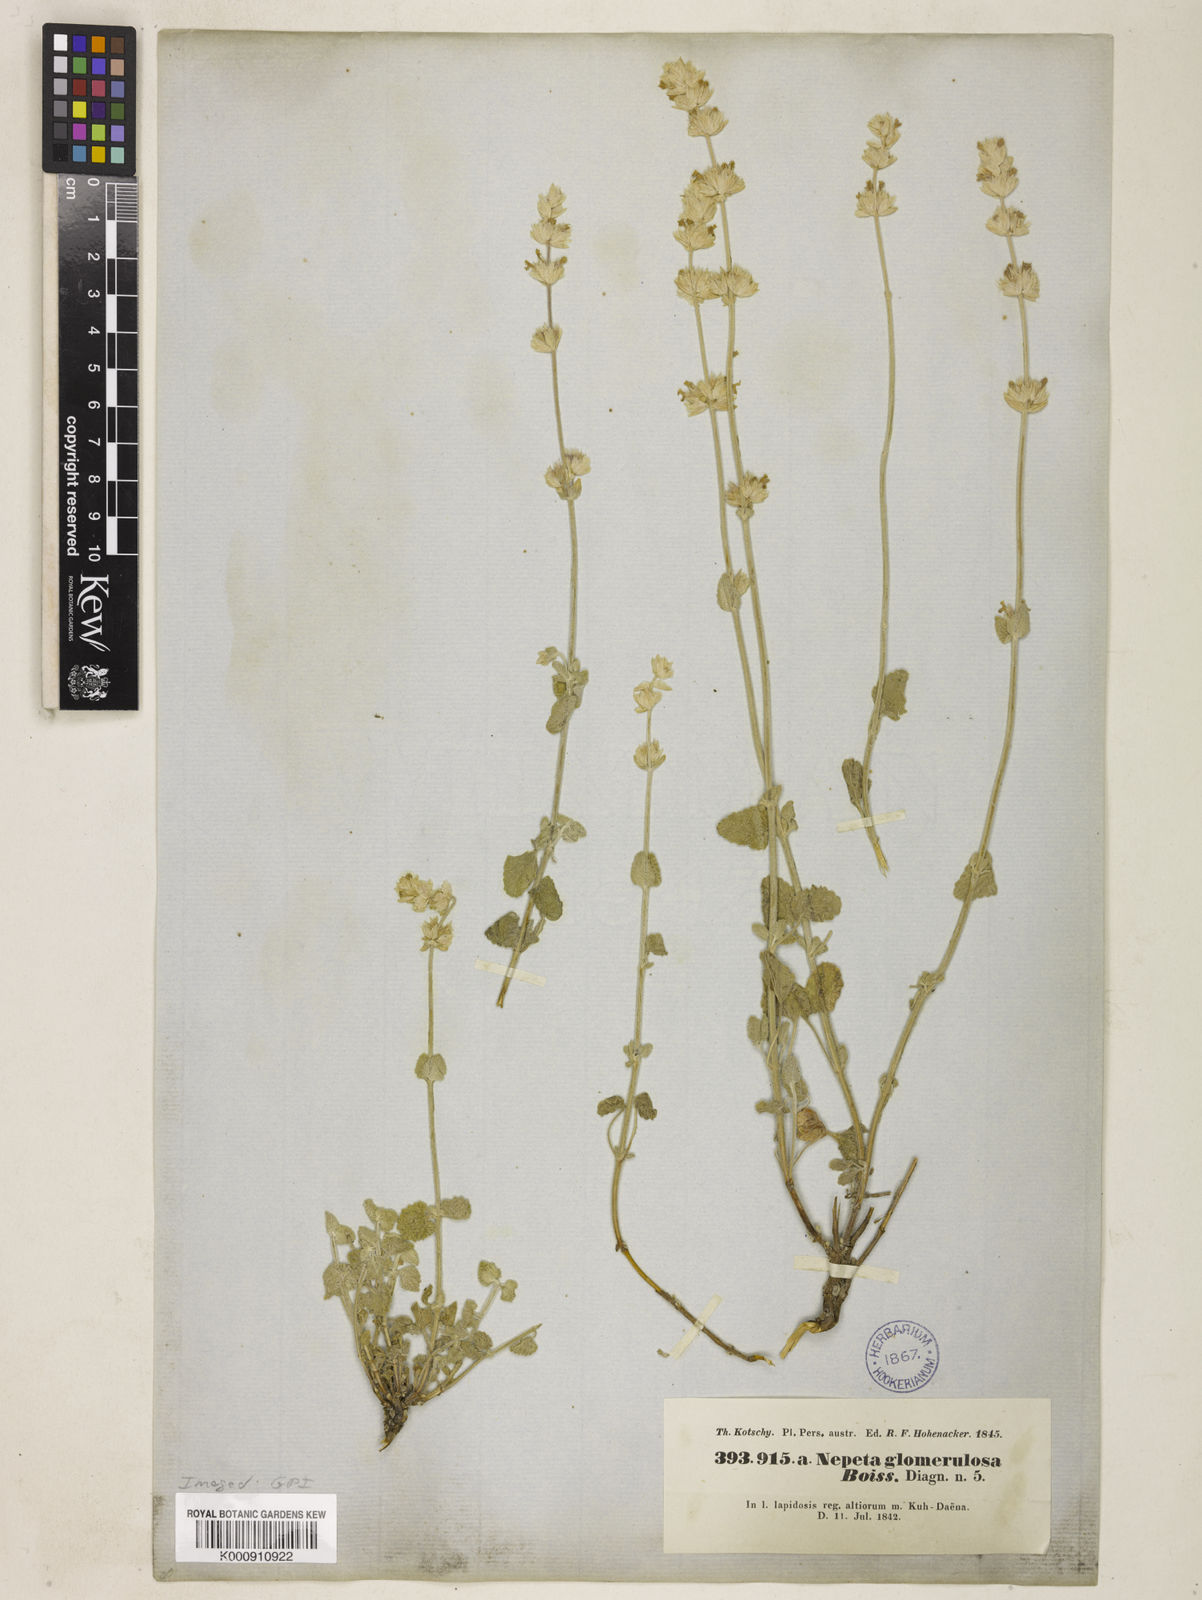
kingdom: Plantae
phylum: Tracheophyta
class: Magnoliopsida
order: Lamiales
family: Lamiaceae
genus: Nepeta
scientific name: Nepeta glomerulosa
